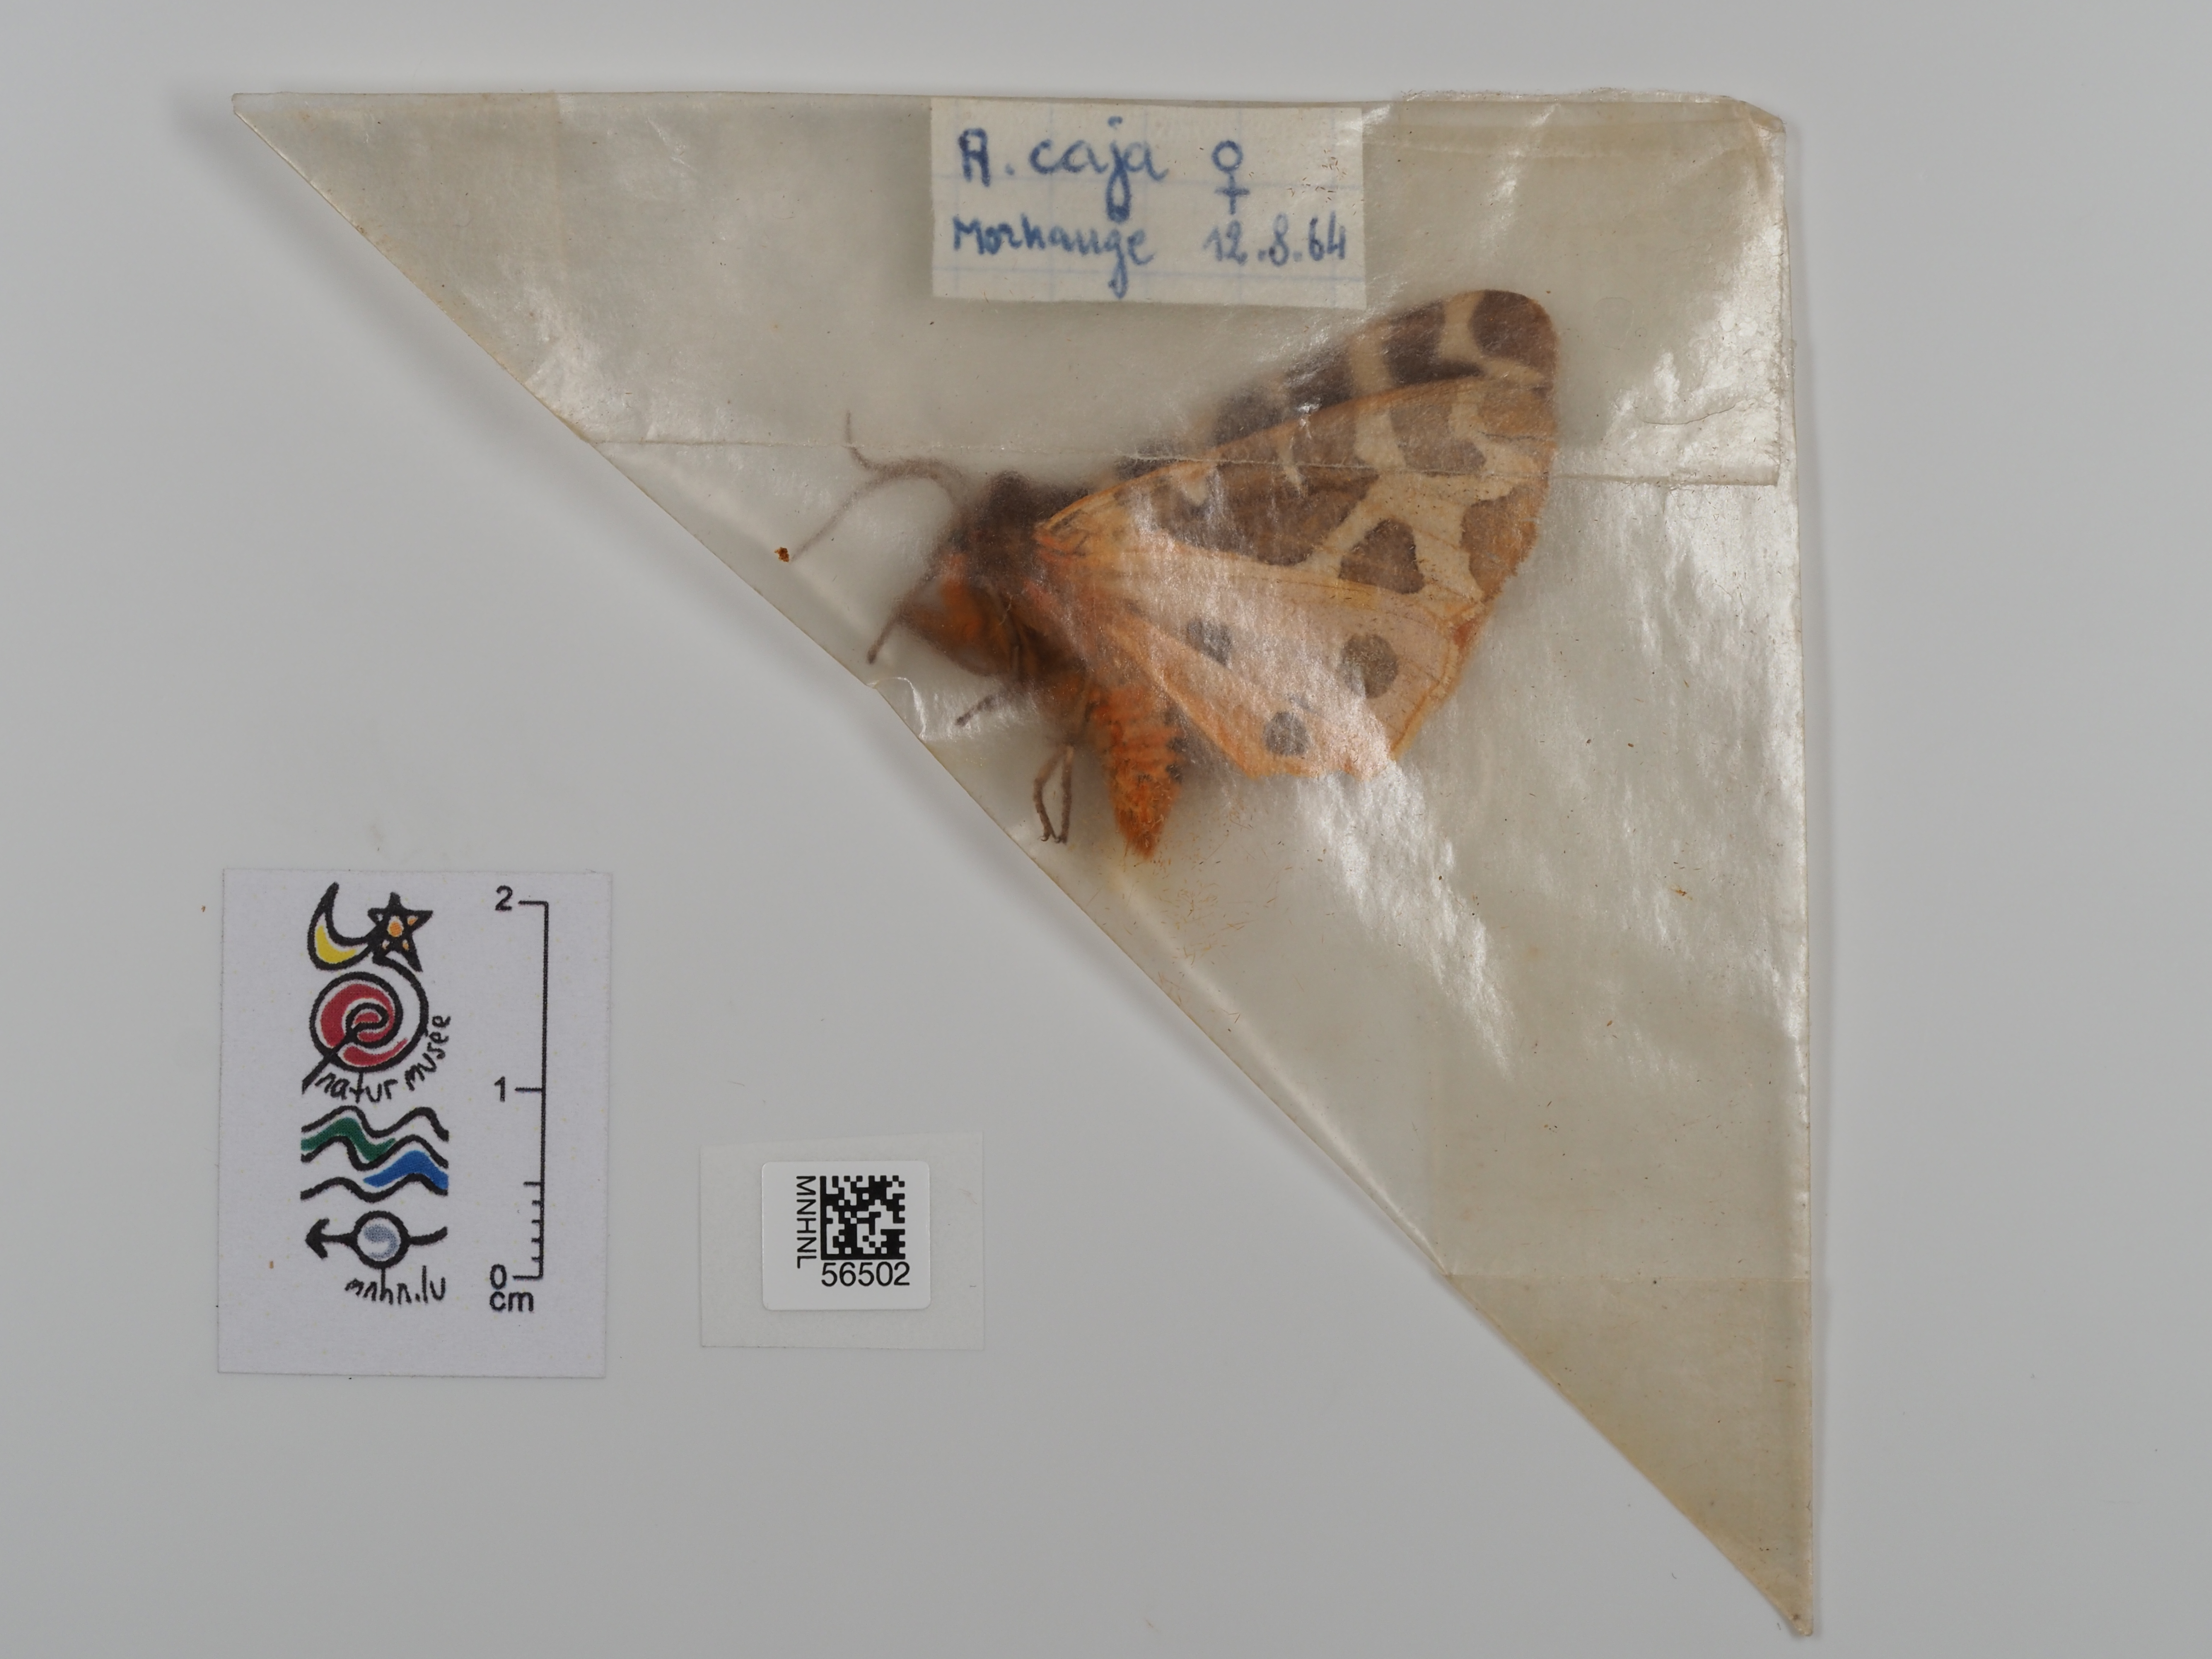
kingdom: Animalia
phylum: Arthropoda
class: Insecta
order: Lepidoptera
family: Erebidae
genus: Arctia
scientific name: Arctia caja
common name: Garden tiger
